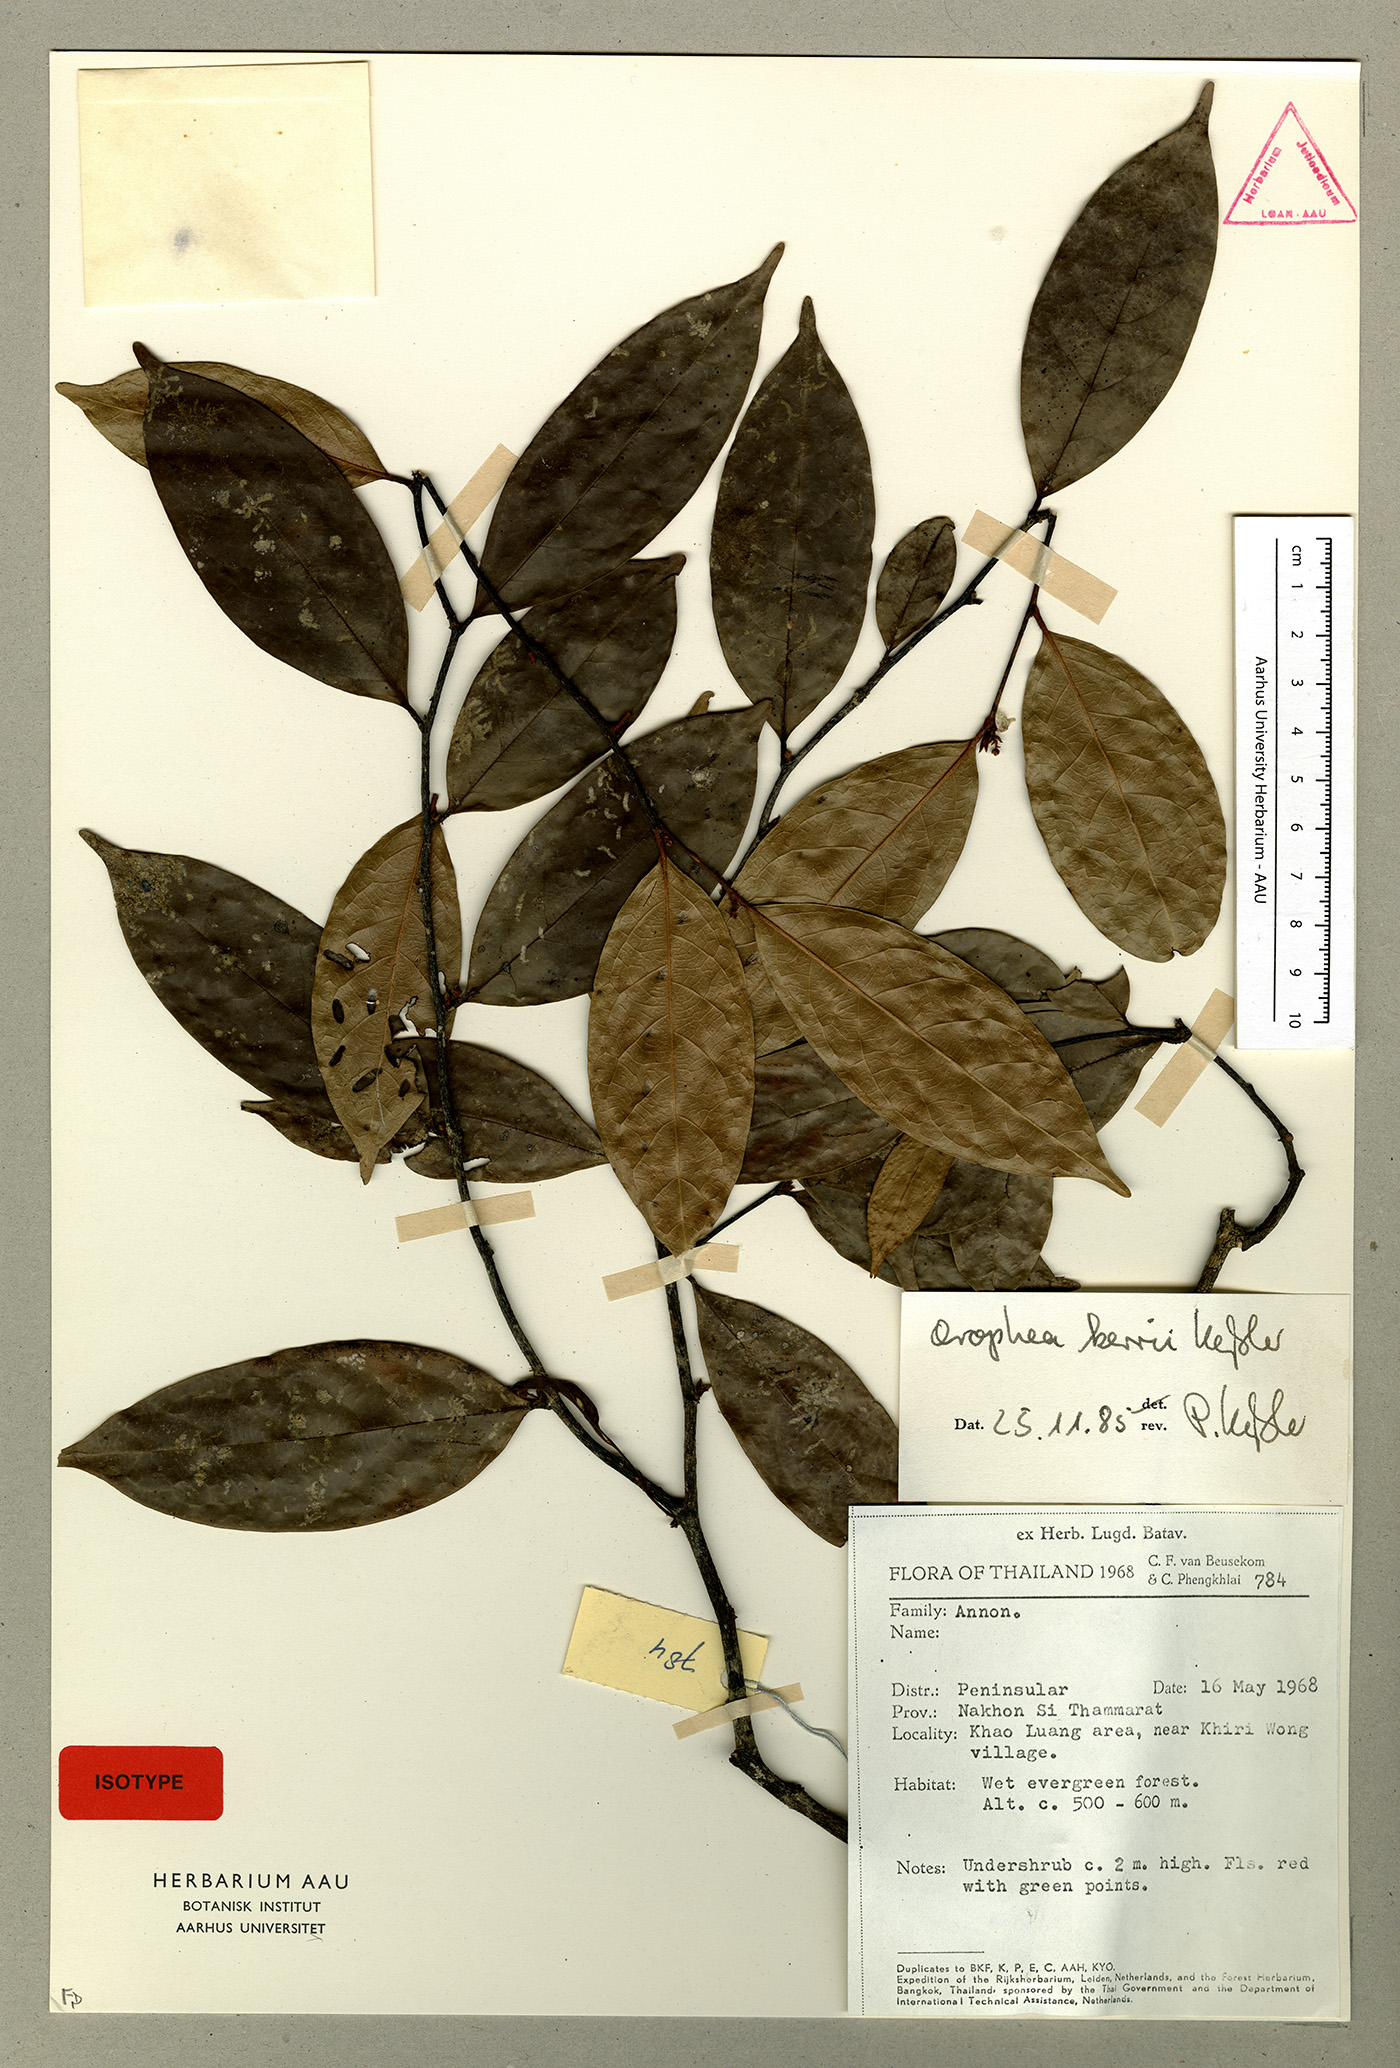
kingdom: Plantae
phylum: Tracheophyta
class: Magnoliopsida
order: Magnoliales
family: Annonaceae
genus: Orophea
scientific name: Orophea kerrii
